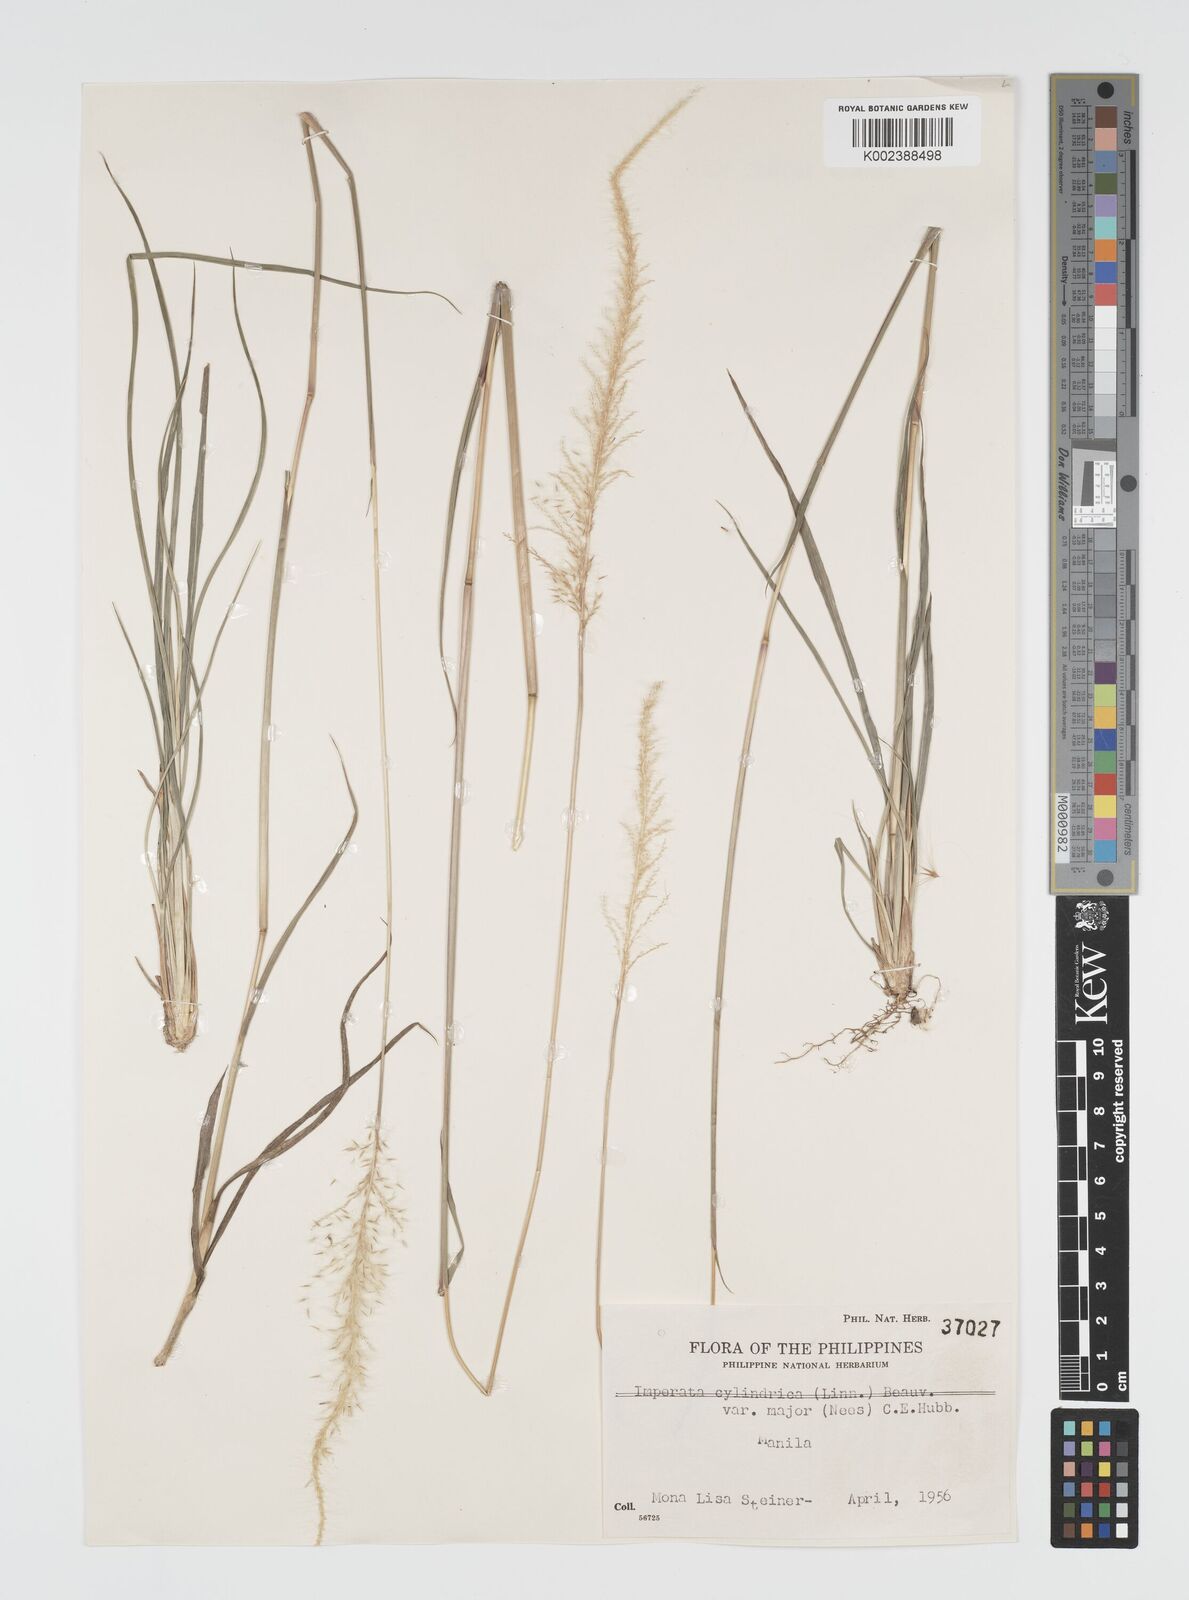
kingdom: Plantae
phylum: Tracheophyta
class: Liliopsida
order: Poales
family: Poaceae
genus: Imperata
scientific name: Imperata cylindrica
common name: Cogongrass
